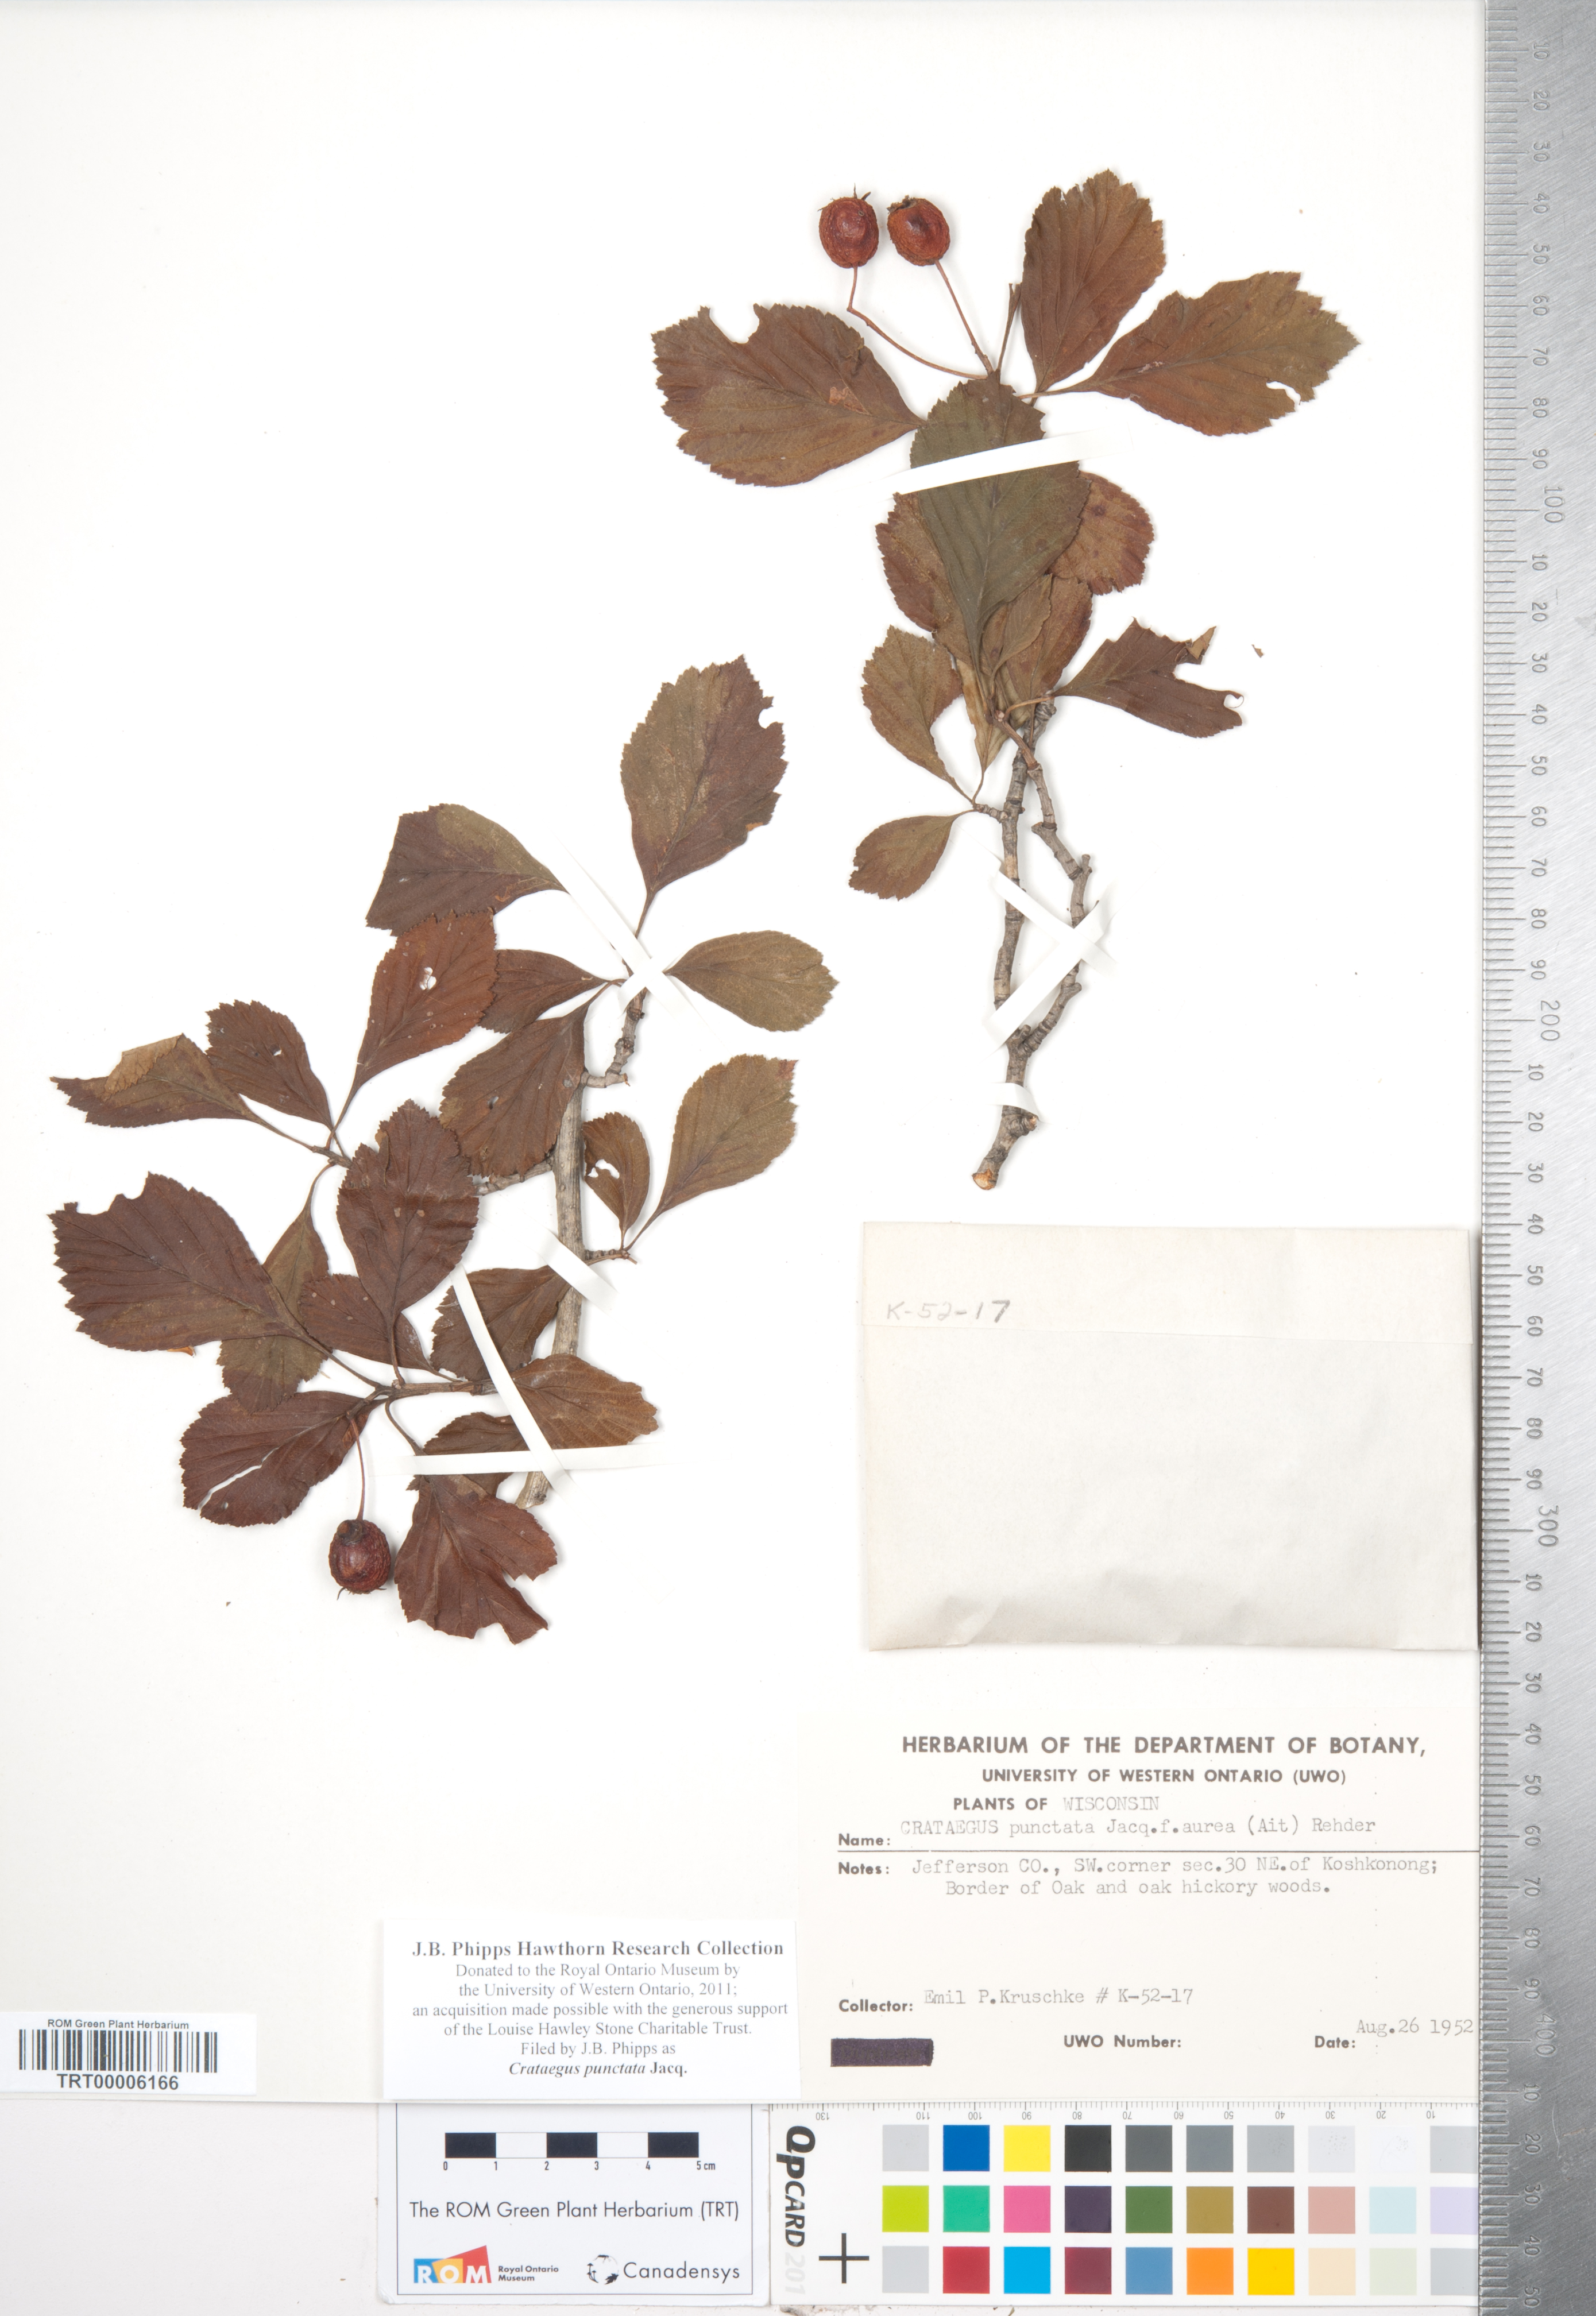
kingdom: Plantae
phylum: Tracheophyta
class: Magnoliopsida
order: Rosales
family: Rosaceae
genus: Crataegus
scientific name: Crataegus punctata
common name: Dotted hawthorn
